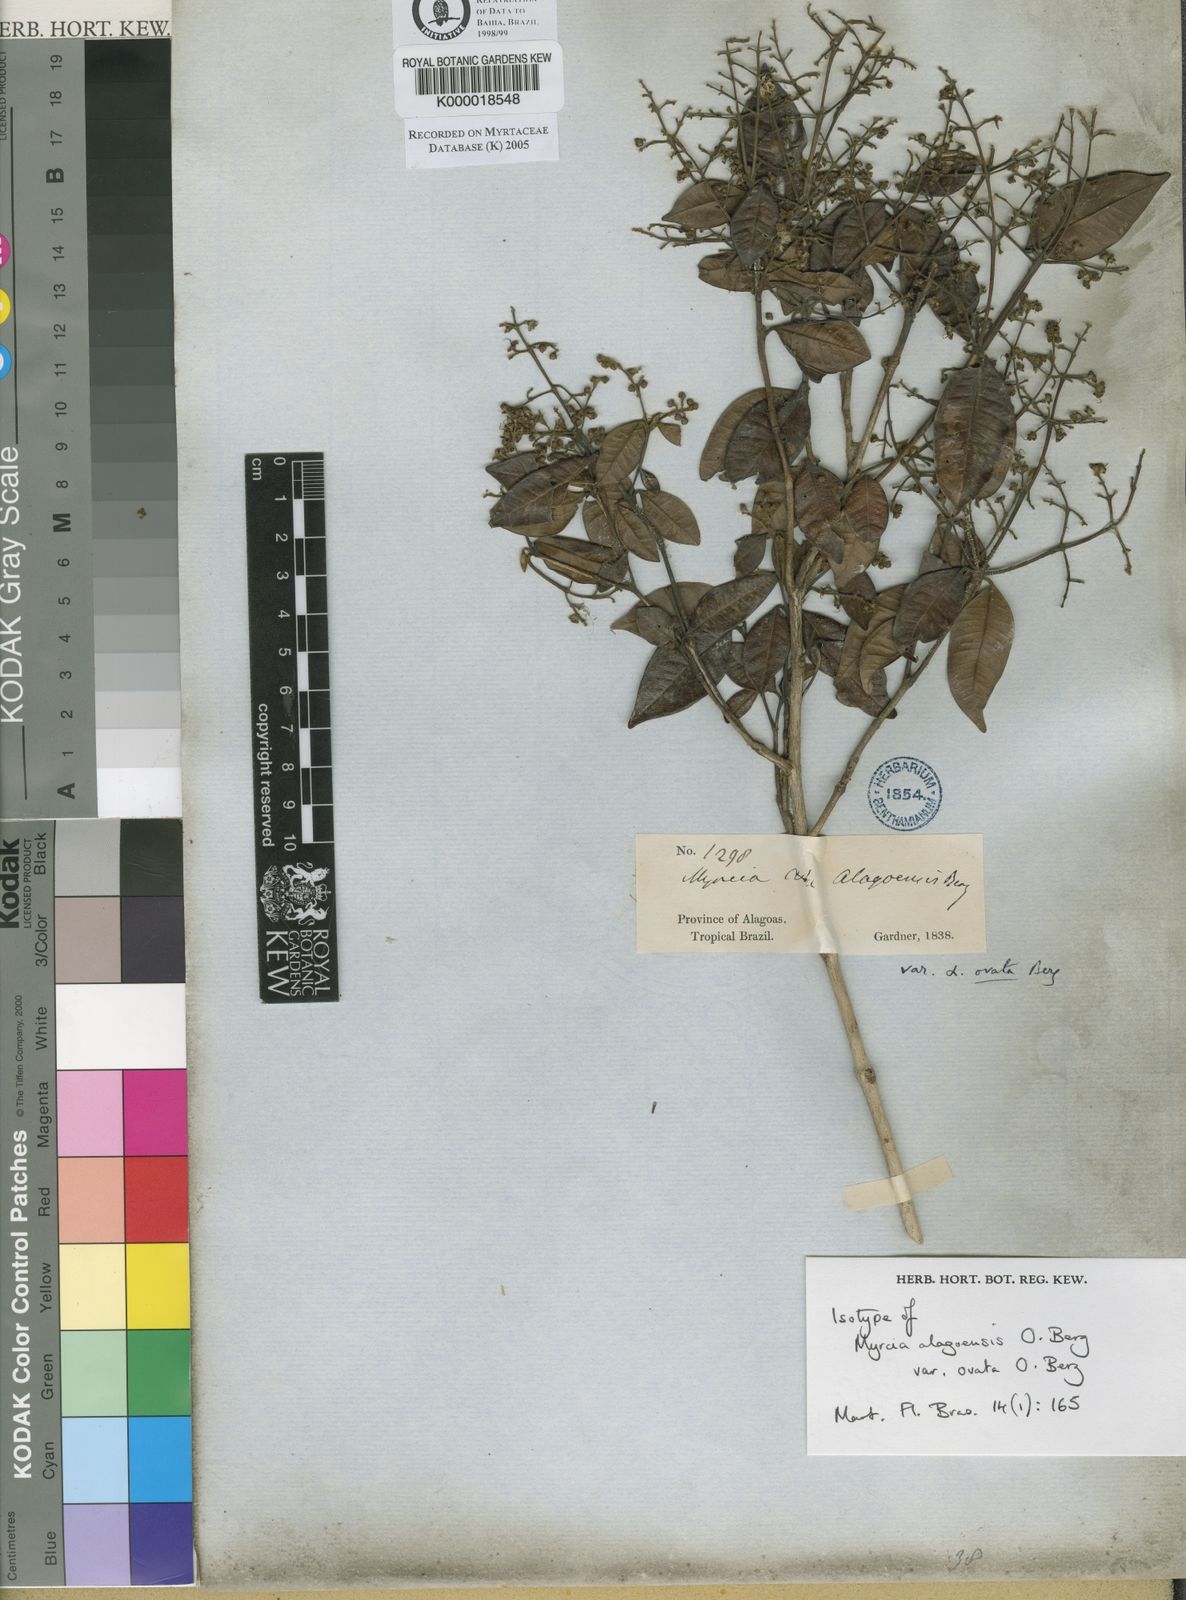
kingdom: Plantae
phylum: Tracheophyta
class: Magnoliopsida
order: Myrtales
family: Myrtaceae
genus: Myrcia
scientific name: Myrcia splendens
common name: Surinam cherry
